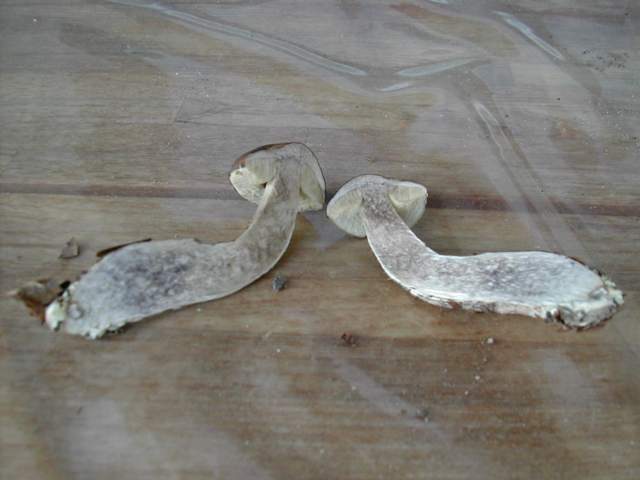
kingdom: Fungi
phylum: Basidiomycota
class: Agaricomycetes
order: Boletales
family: Boletaceae
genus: Leccinellum
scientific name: Leccinellum pseudoscabrum
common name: avnbøg-skælrørhat
